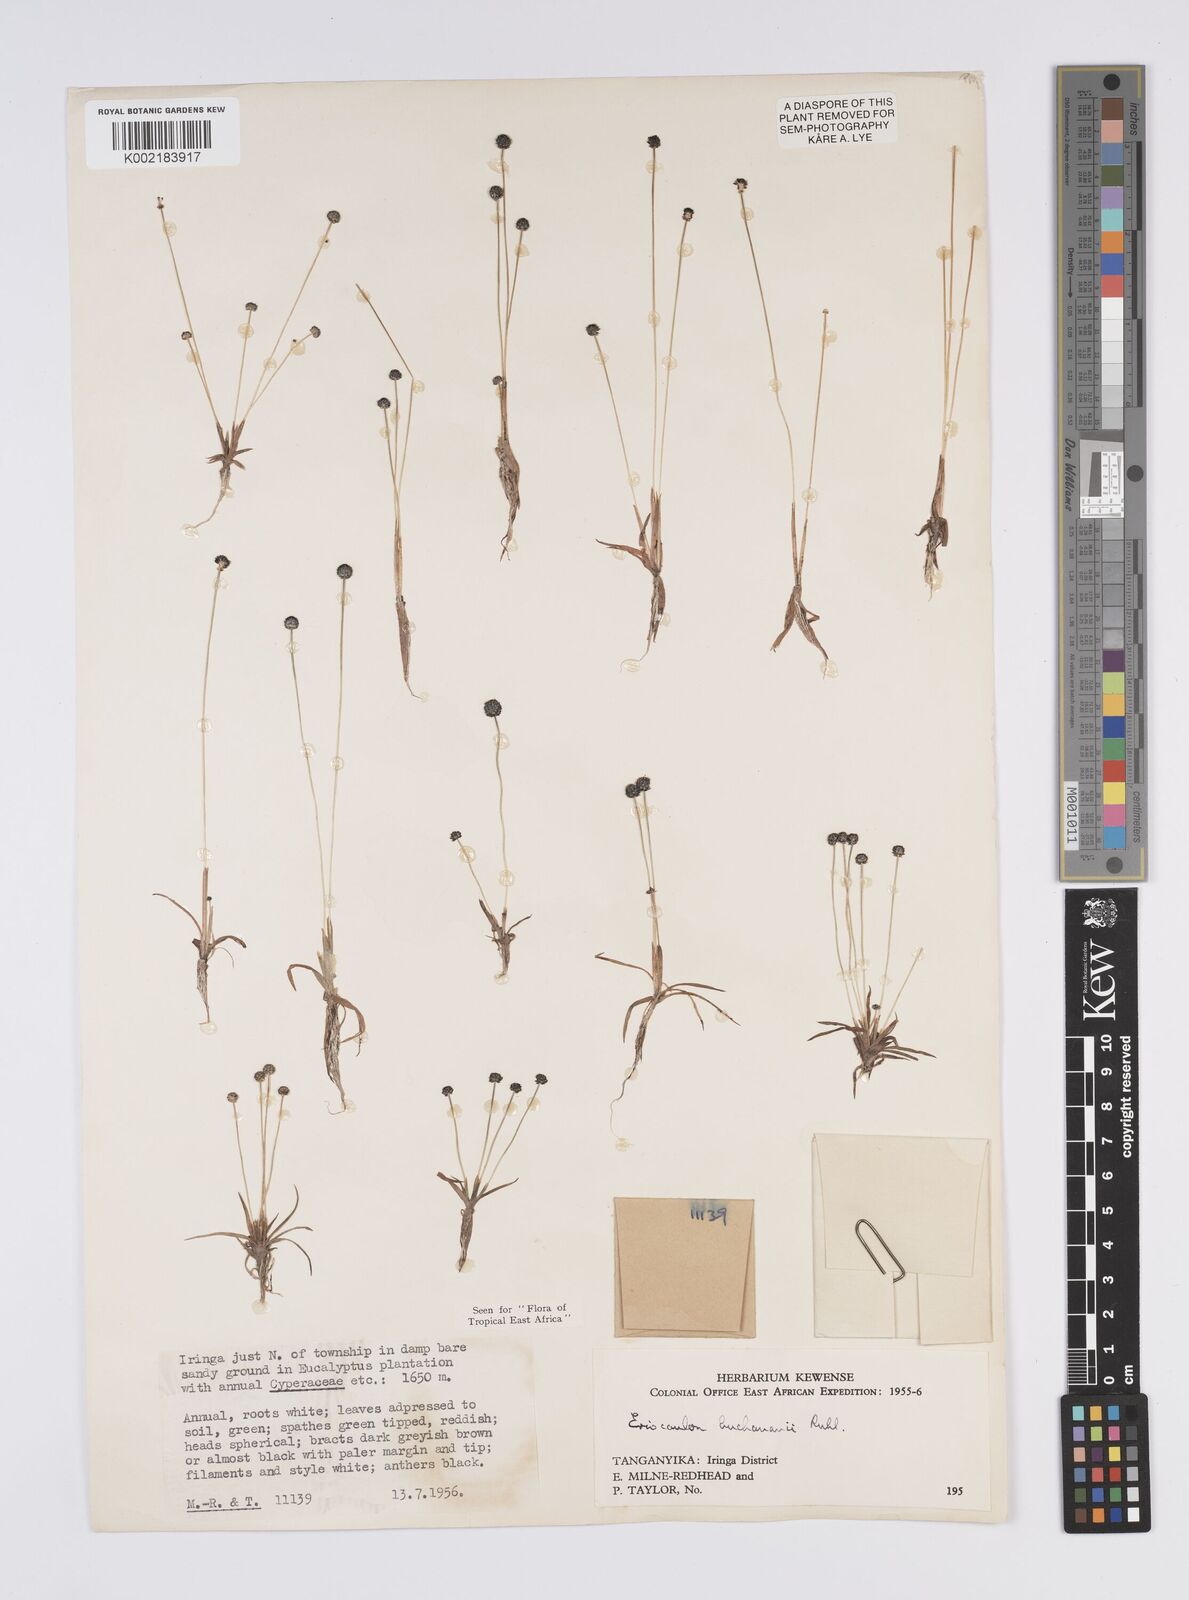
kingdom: Plantae
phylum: Tracheophyta
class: Liliopsida
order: Poales
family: Eriocaulaceae
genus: Eriocaulon
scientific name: Eriocaulon buchananii
